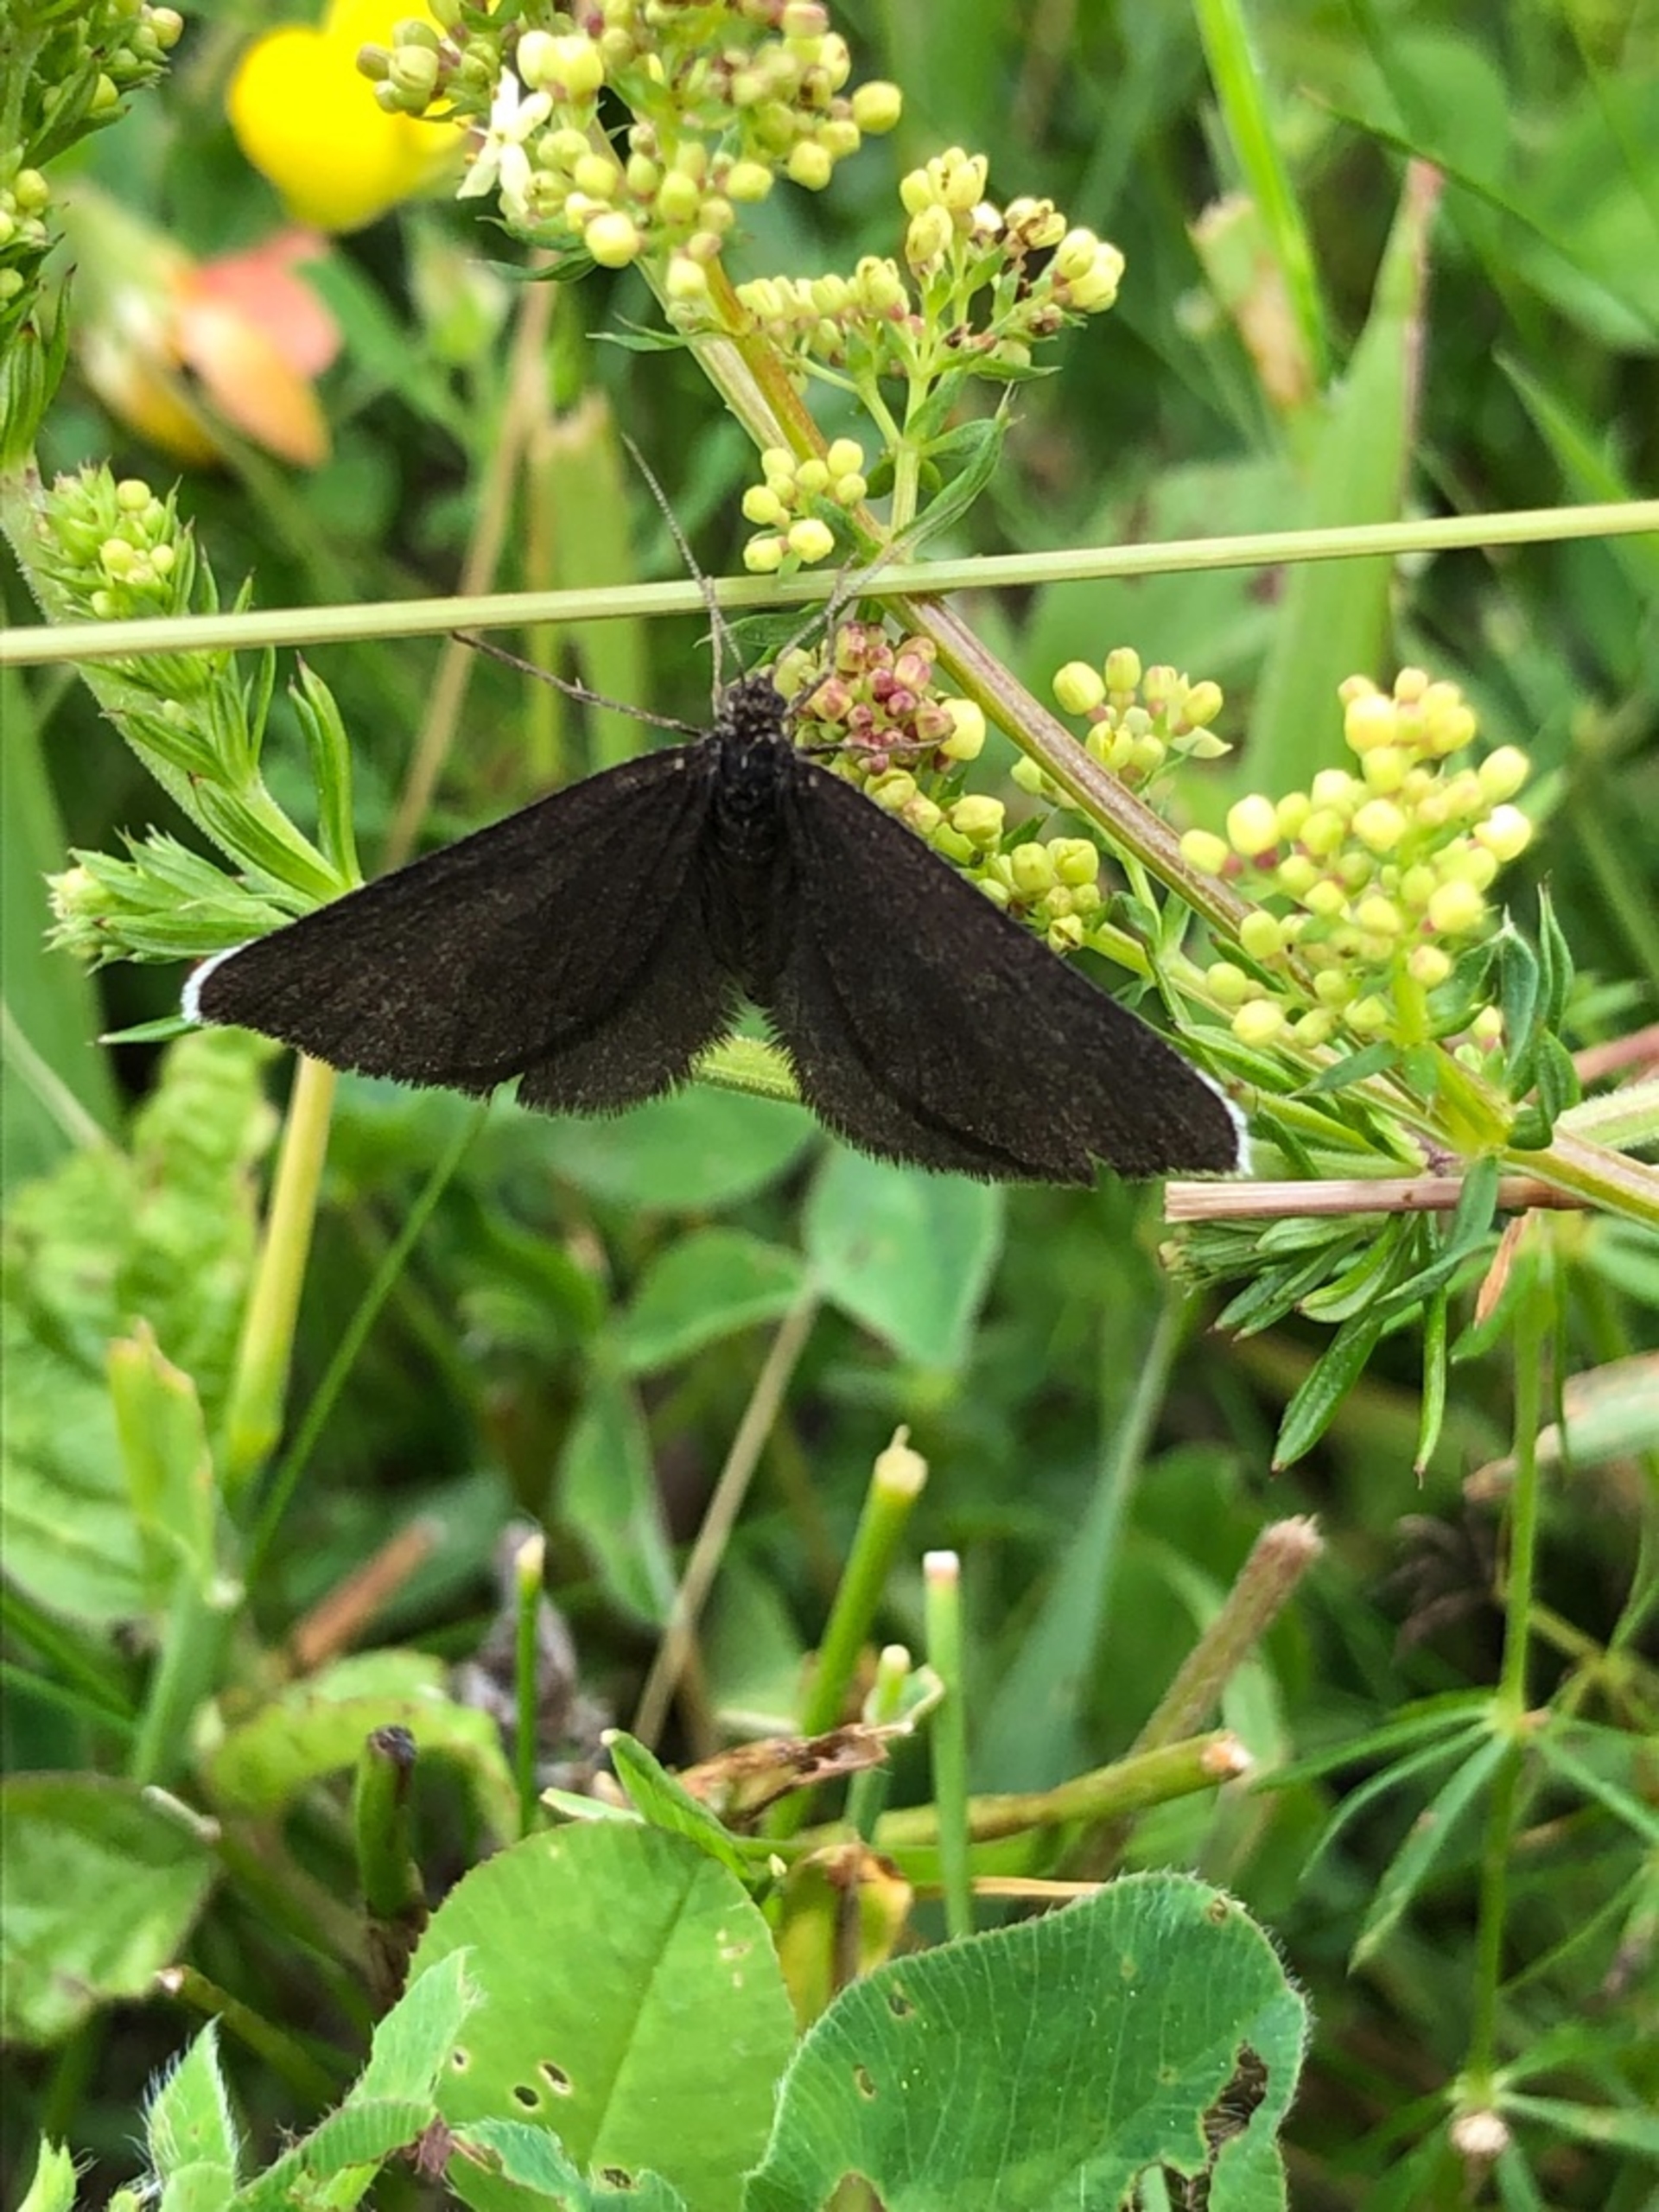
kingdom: Animalia
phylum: Arthropoda
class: Insecta
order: Lepidoptera
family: Geometridae
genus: Odezia
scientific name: Odezia atrata
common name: Sort måler
